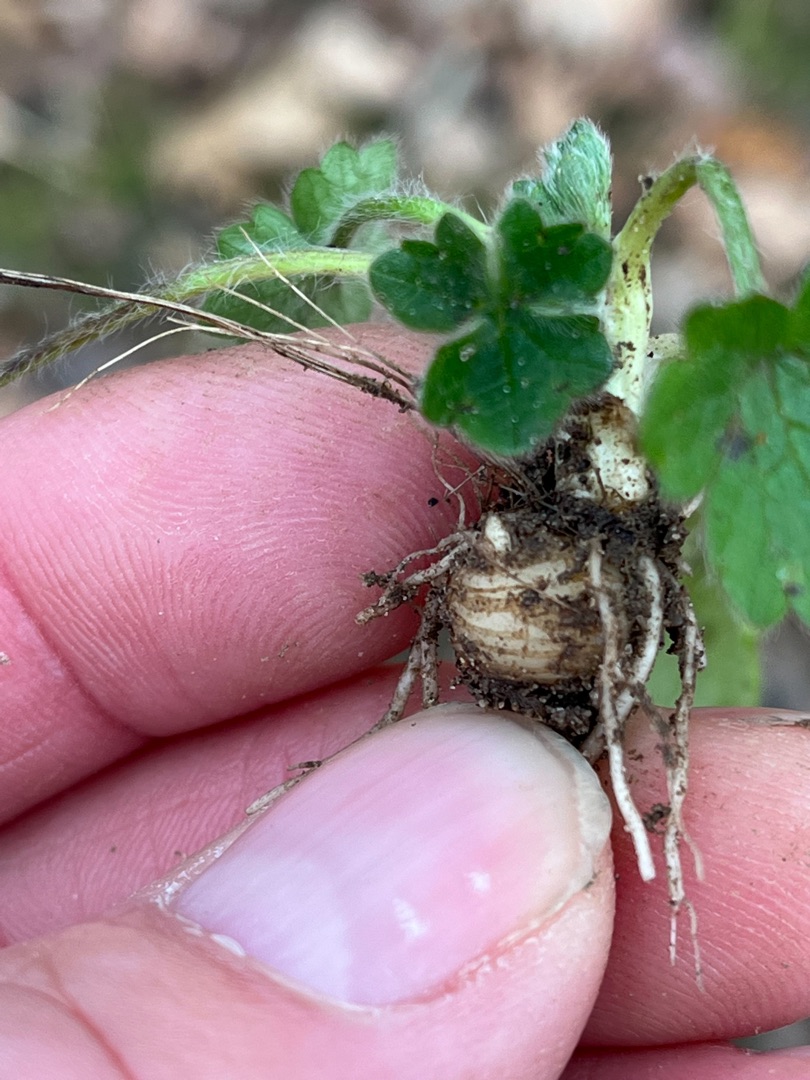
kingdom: Plantae
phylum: Tracheophyta
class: Magnoliopsida
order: Ranunculales
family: Ranunculaceae
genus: Ranunculus
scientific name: Ranunculus bulbosus
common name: Knold-ranunkel
